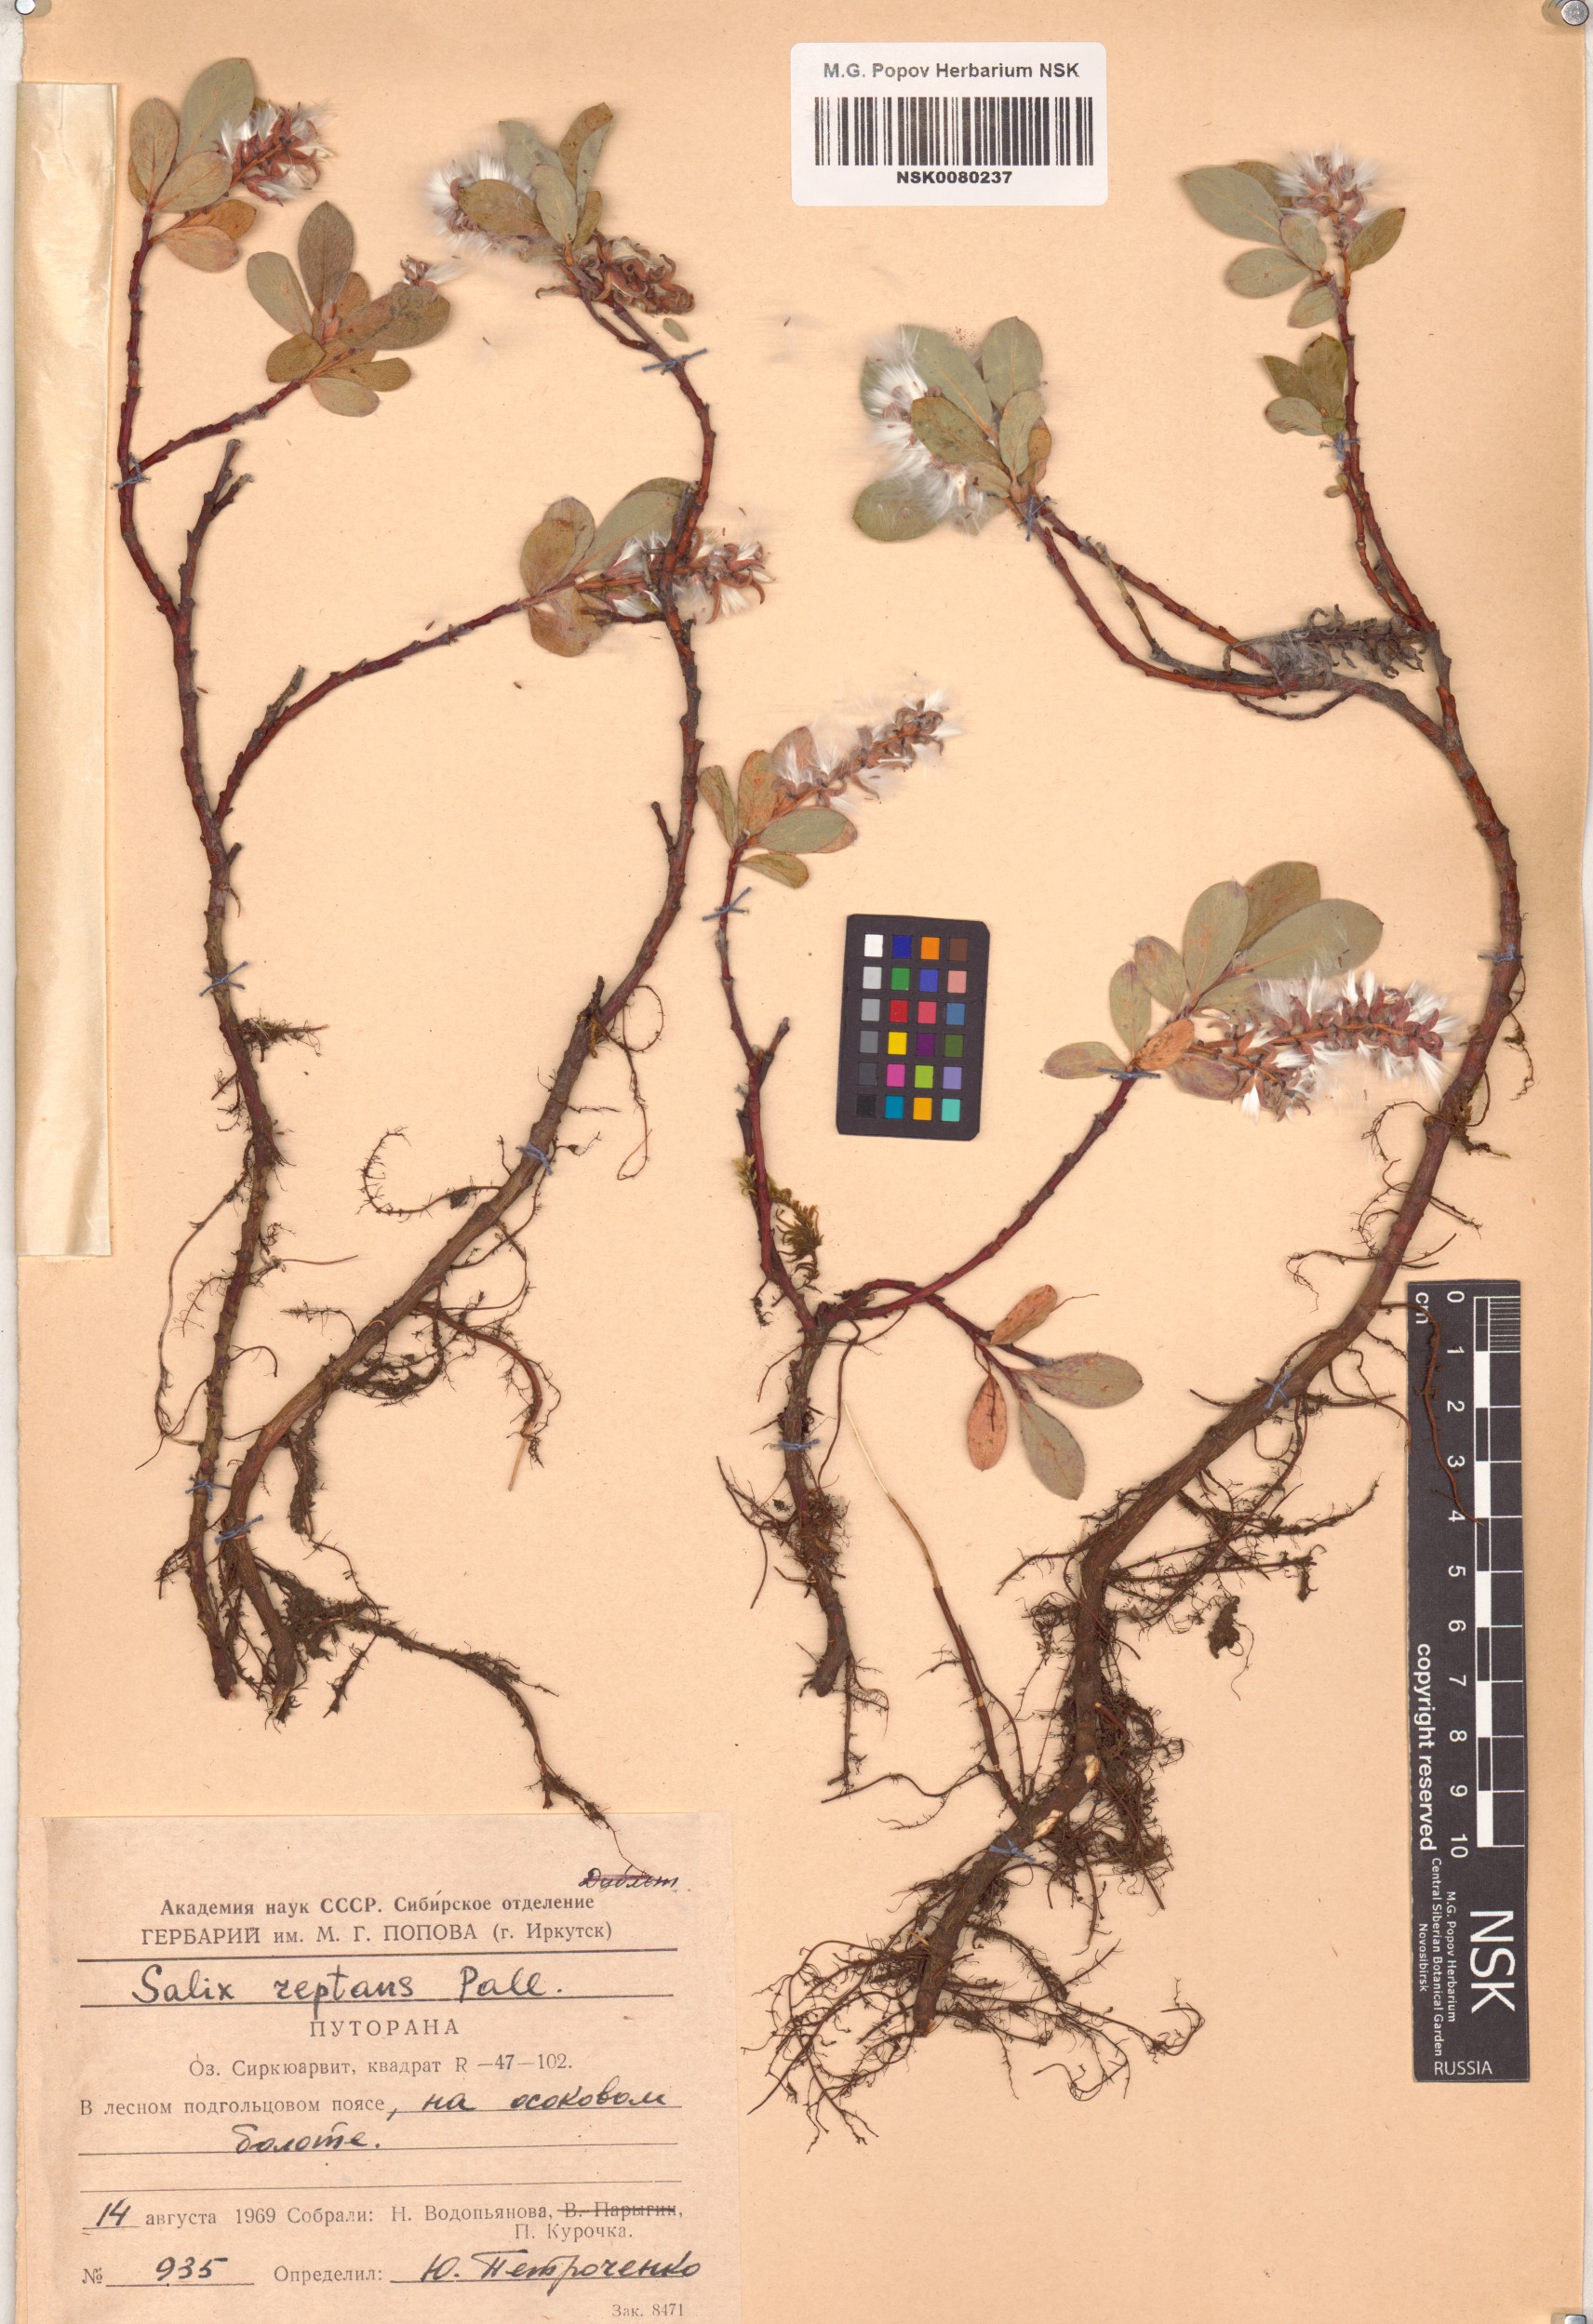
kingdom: Plantae
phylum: Tracheophyta
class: Magnoliopsida
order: Malpighiales
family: Salicaceae
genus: Salix
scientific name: Salix reptans
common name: Arctic creeping willow
